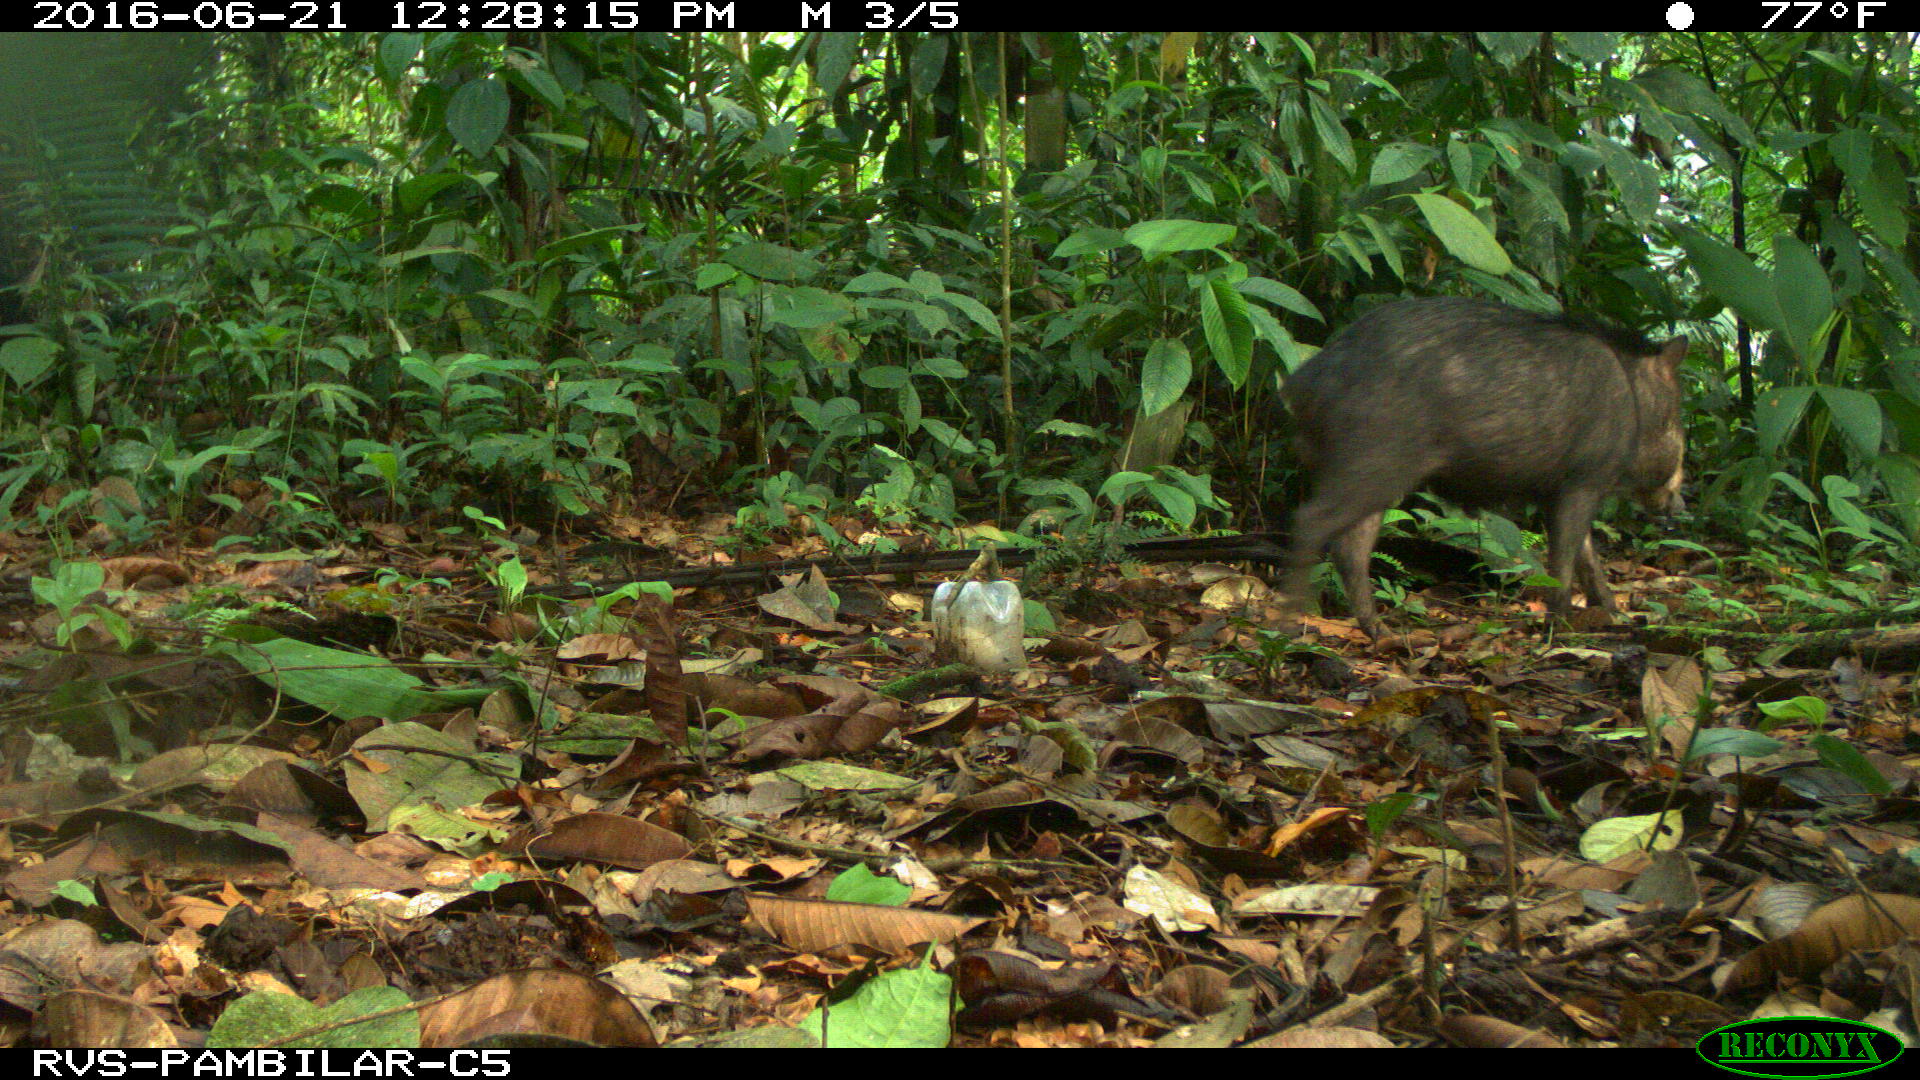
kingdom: Animalia
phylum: Chordata
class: Mammalia
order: Artiodactyla
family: Tayassuidae
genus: Tayassu
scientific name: Tayassu pecari
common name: White-lipped peccary
